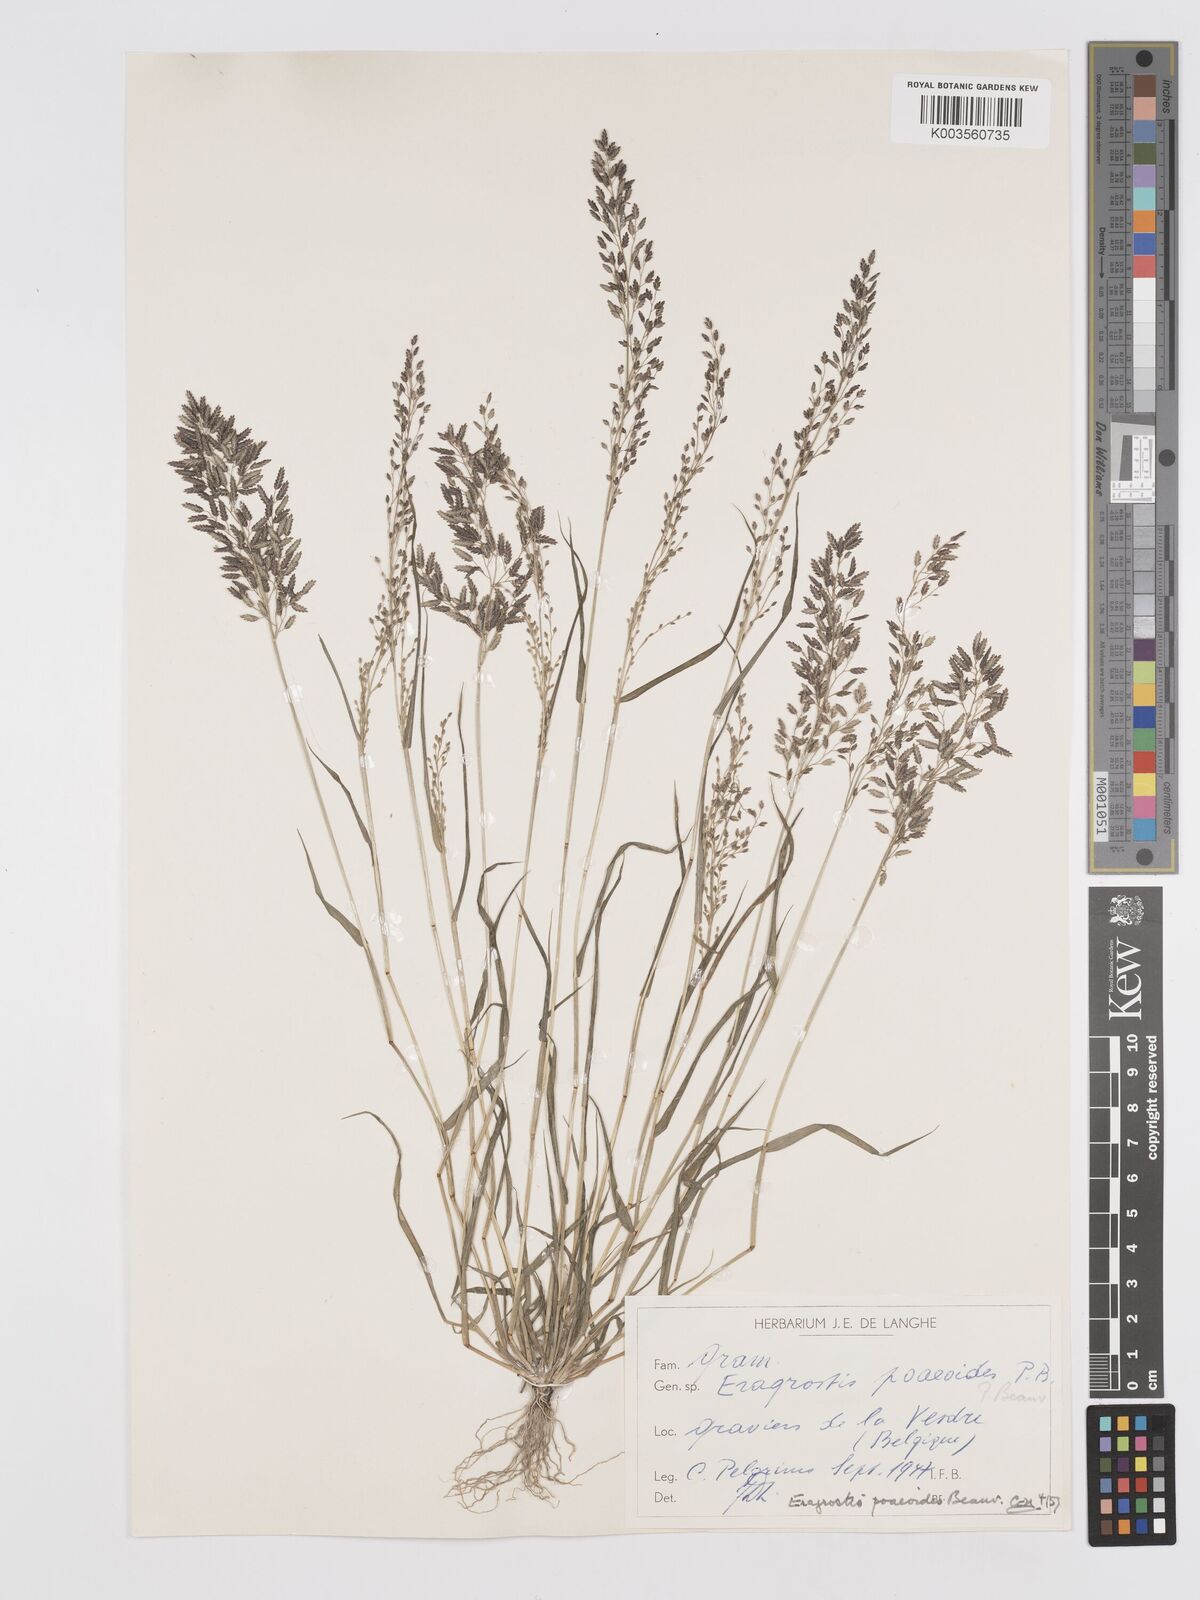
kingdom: Plantae
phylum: Tracheophyta
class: Liliopsida
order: Poales
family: Poaceae
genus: Eragrostis
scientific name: Eragrostis minor
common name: Small love-grass
